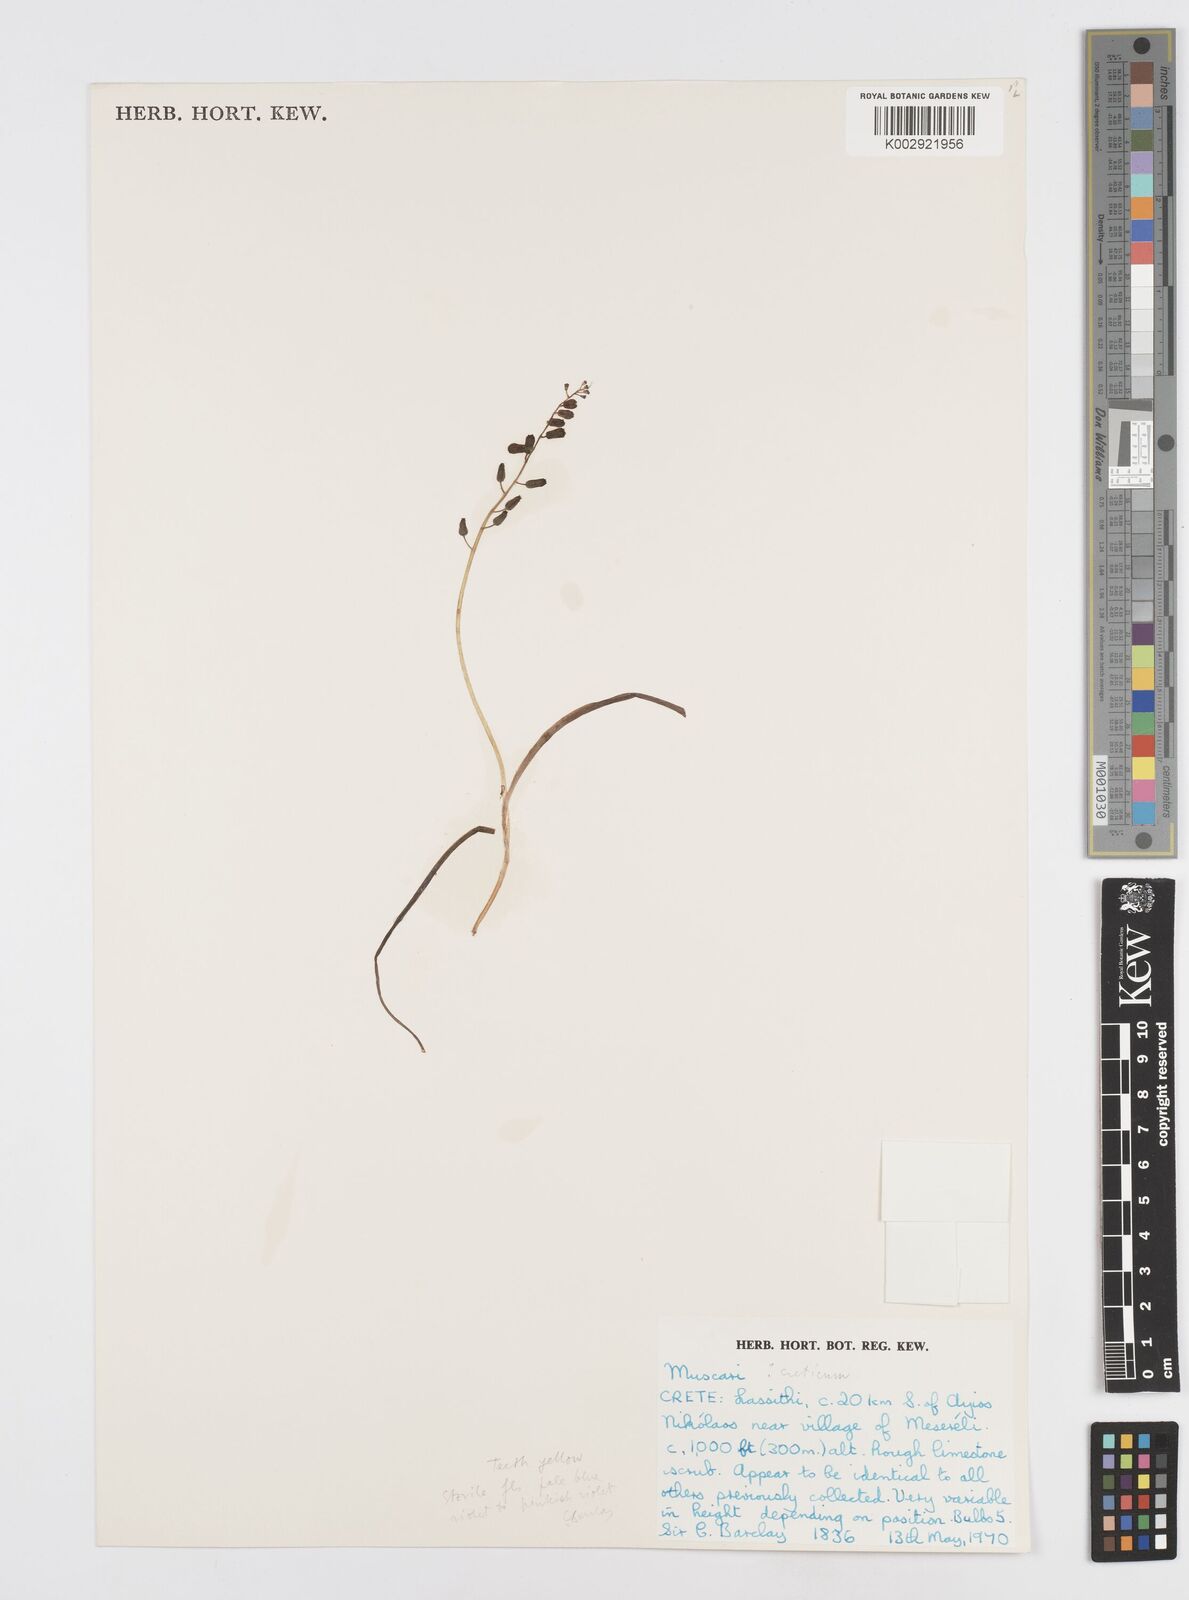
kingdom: Animalia
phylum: Mollusca
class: Cephalopoda
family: Neocomitidae
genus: Leopoldia
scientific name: Leopoldia
